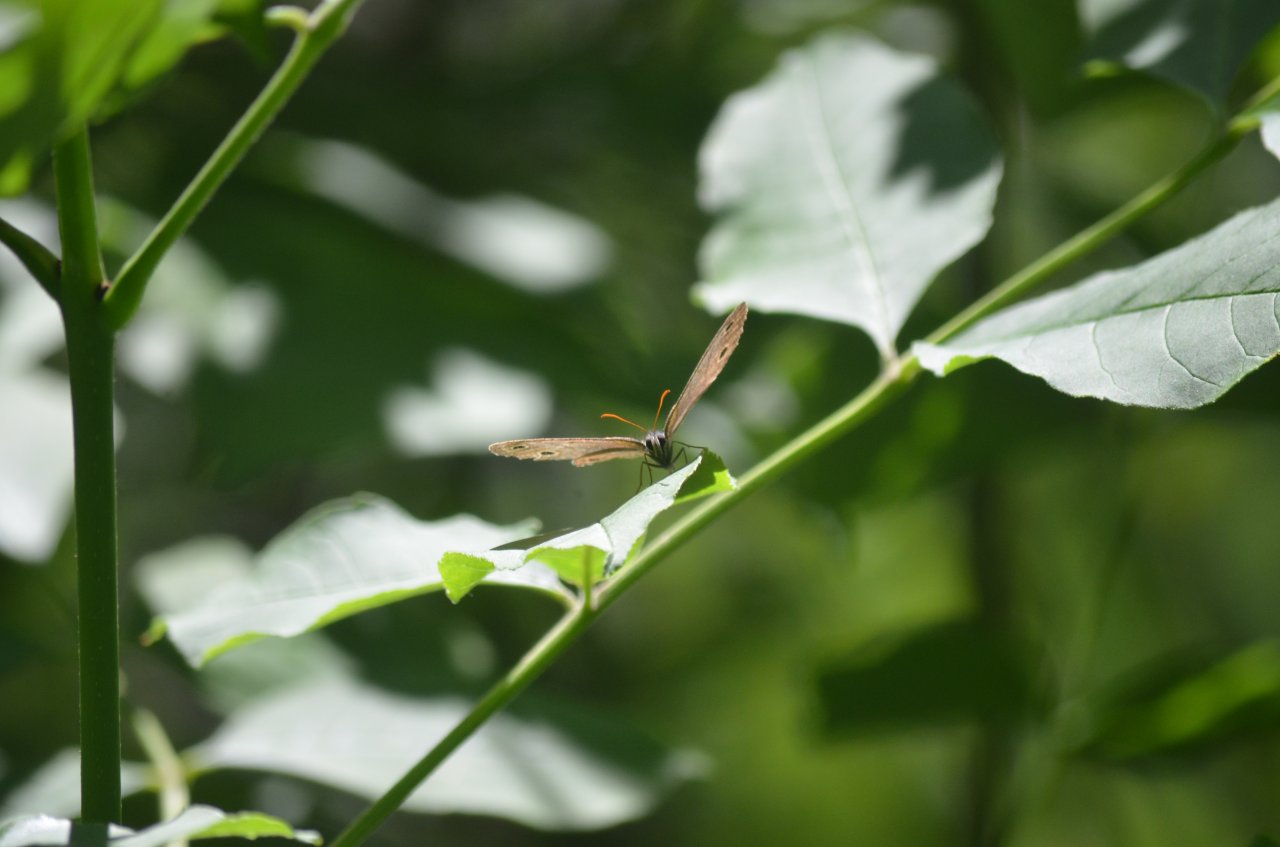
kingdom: Animalia
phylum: Arthropoda
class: Insecta
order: Lepidoptera
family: Nymphalidae
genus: Euptychia
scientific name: Euptychia cymela
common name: Little Wood Satyr
